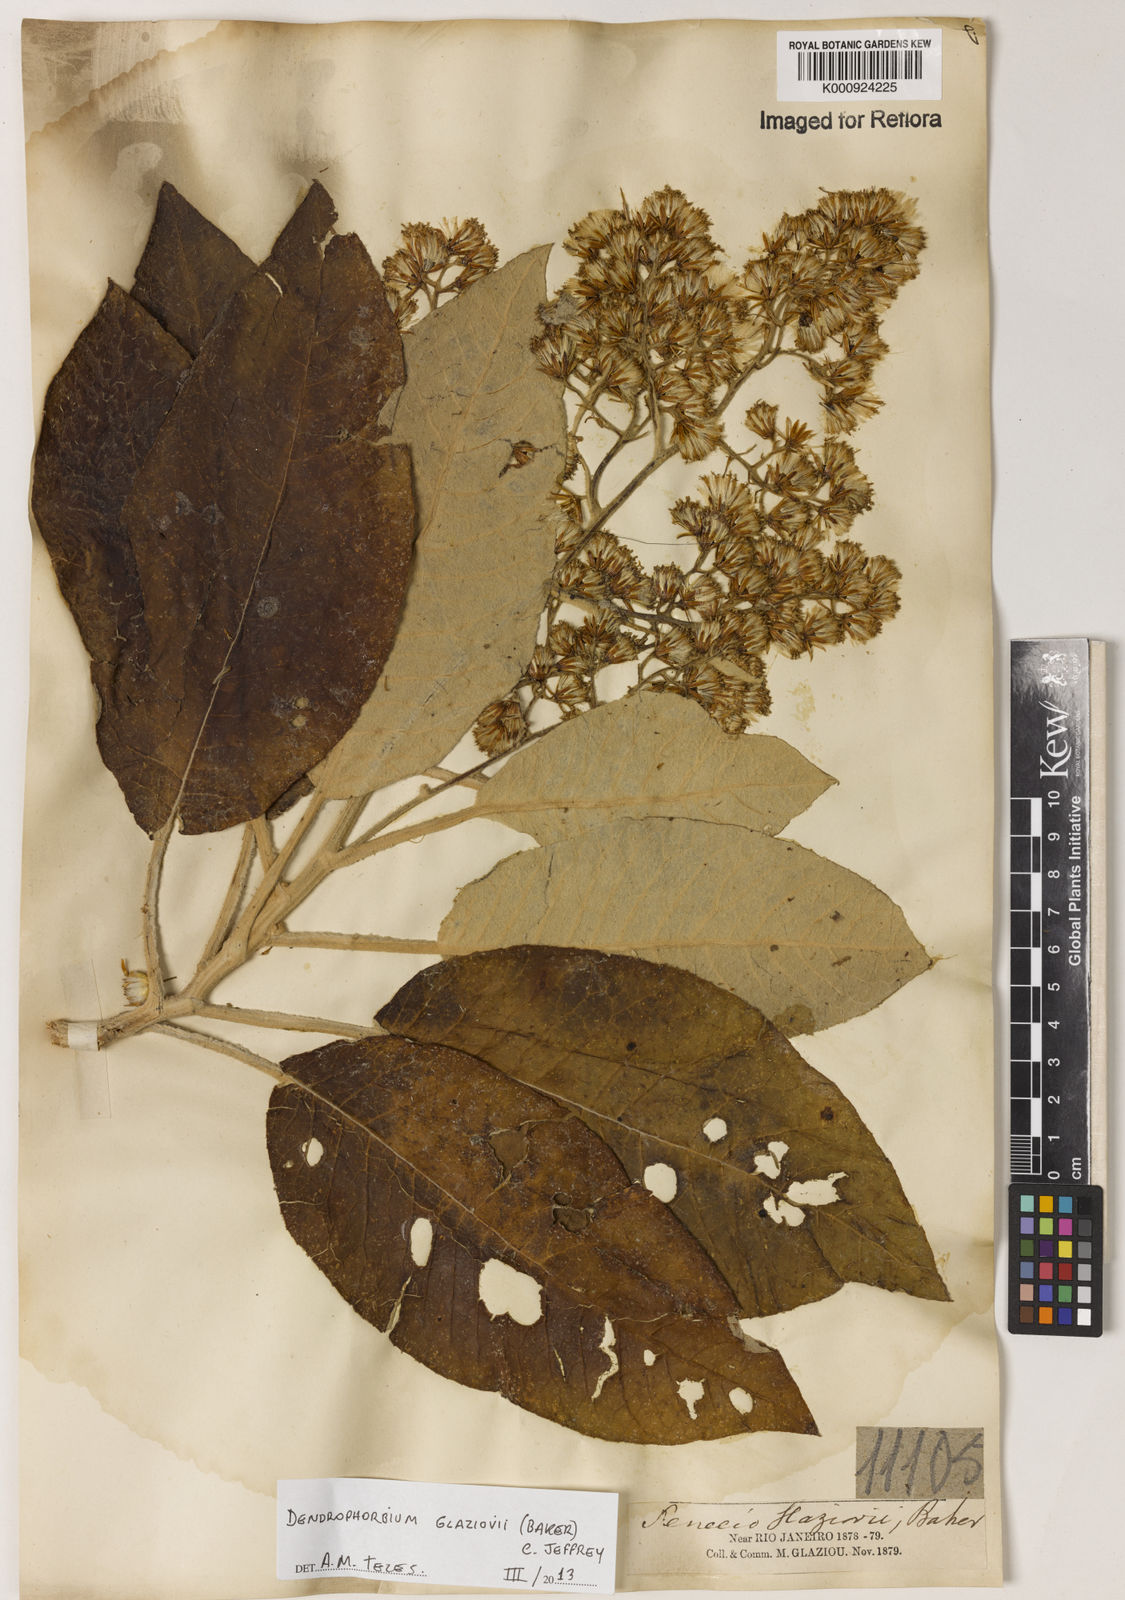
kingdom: Plantae
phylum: Tracheophyta
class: Magnoliopsida
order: Asterales
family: Asteraceae
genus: Dendrophorbium
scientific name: Dendrophorbium glaziovii
